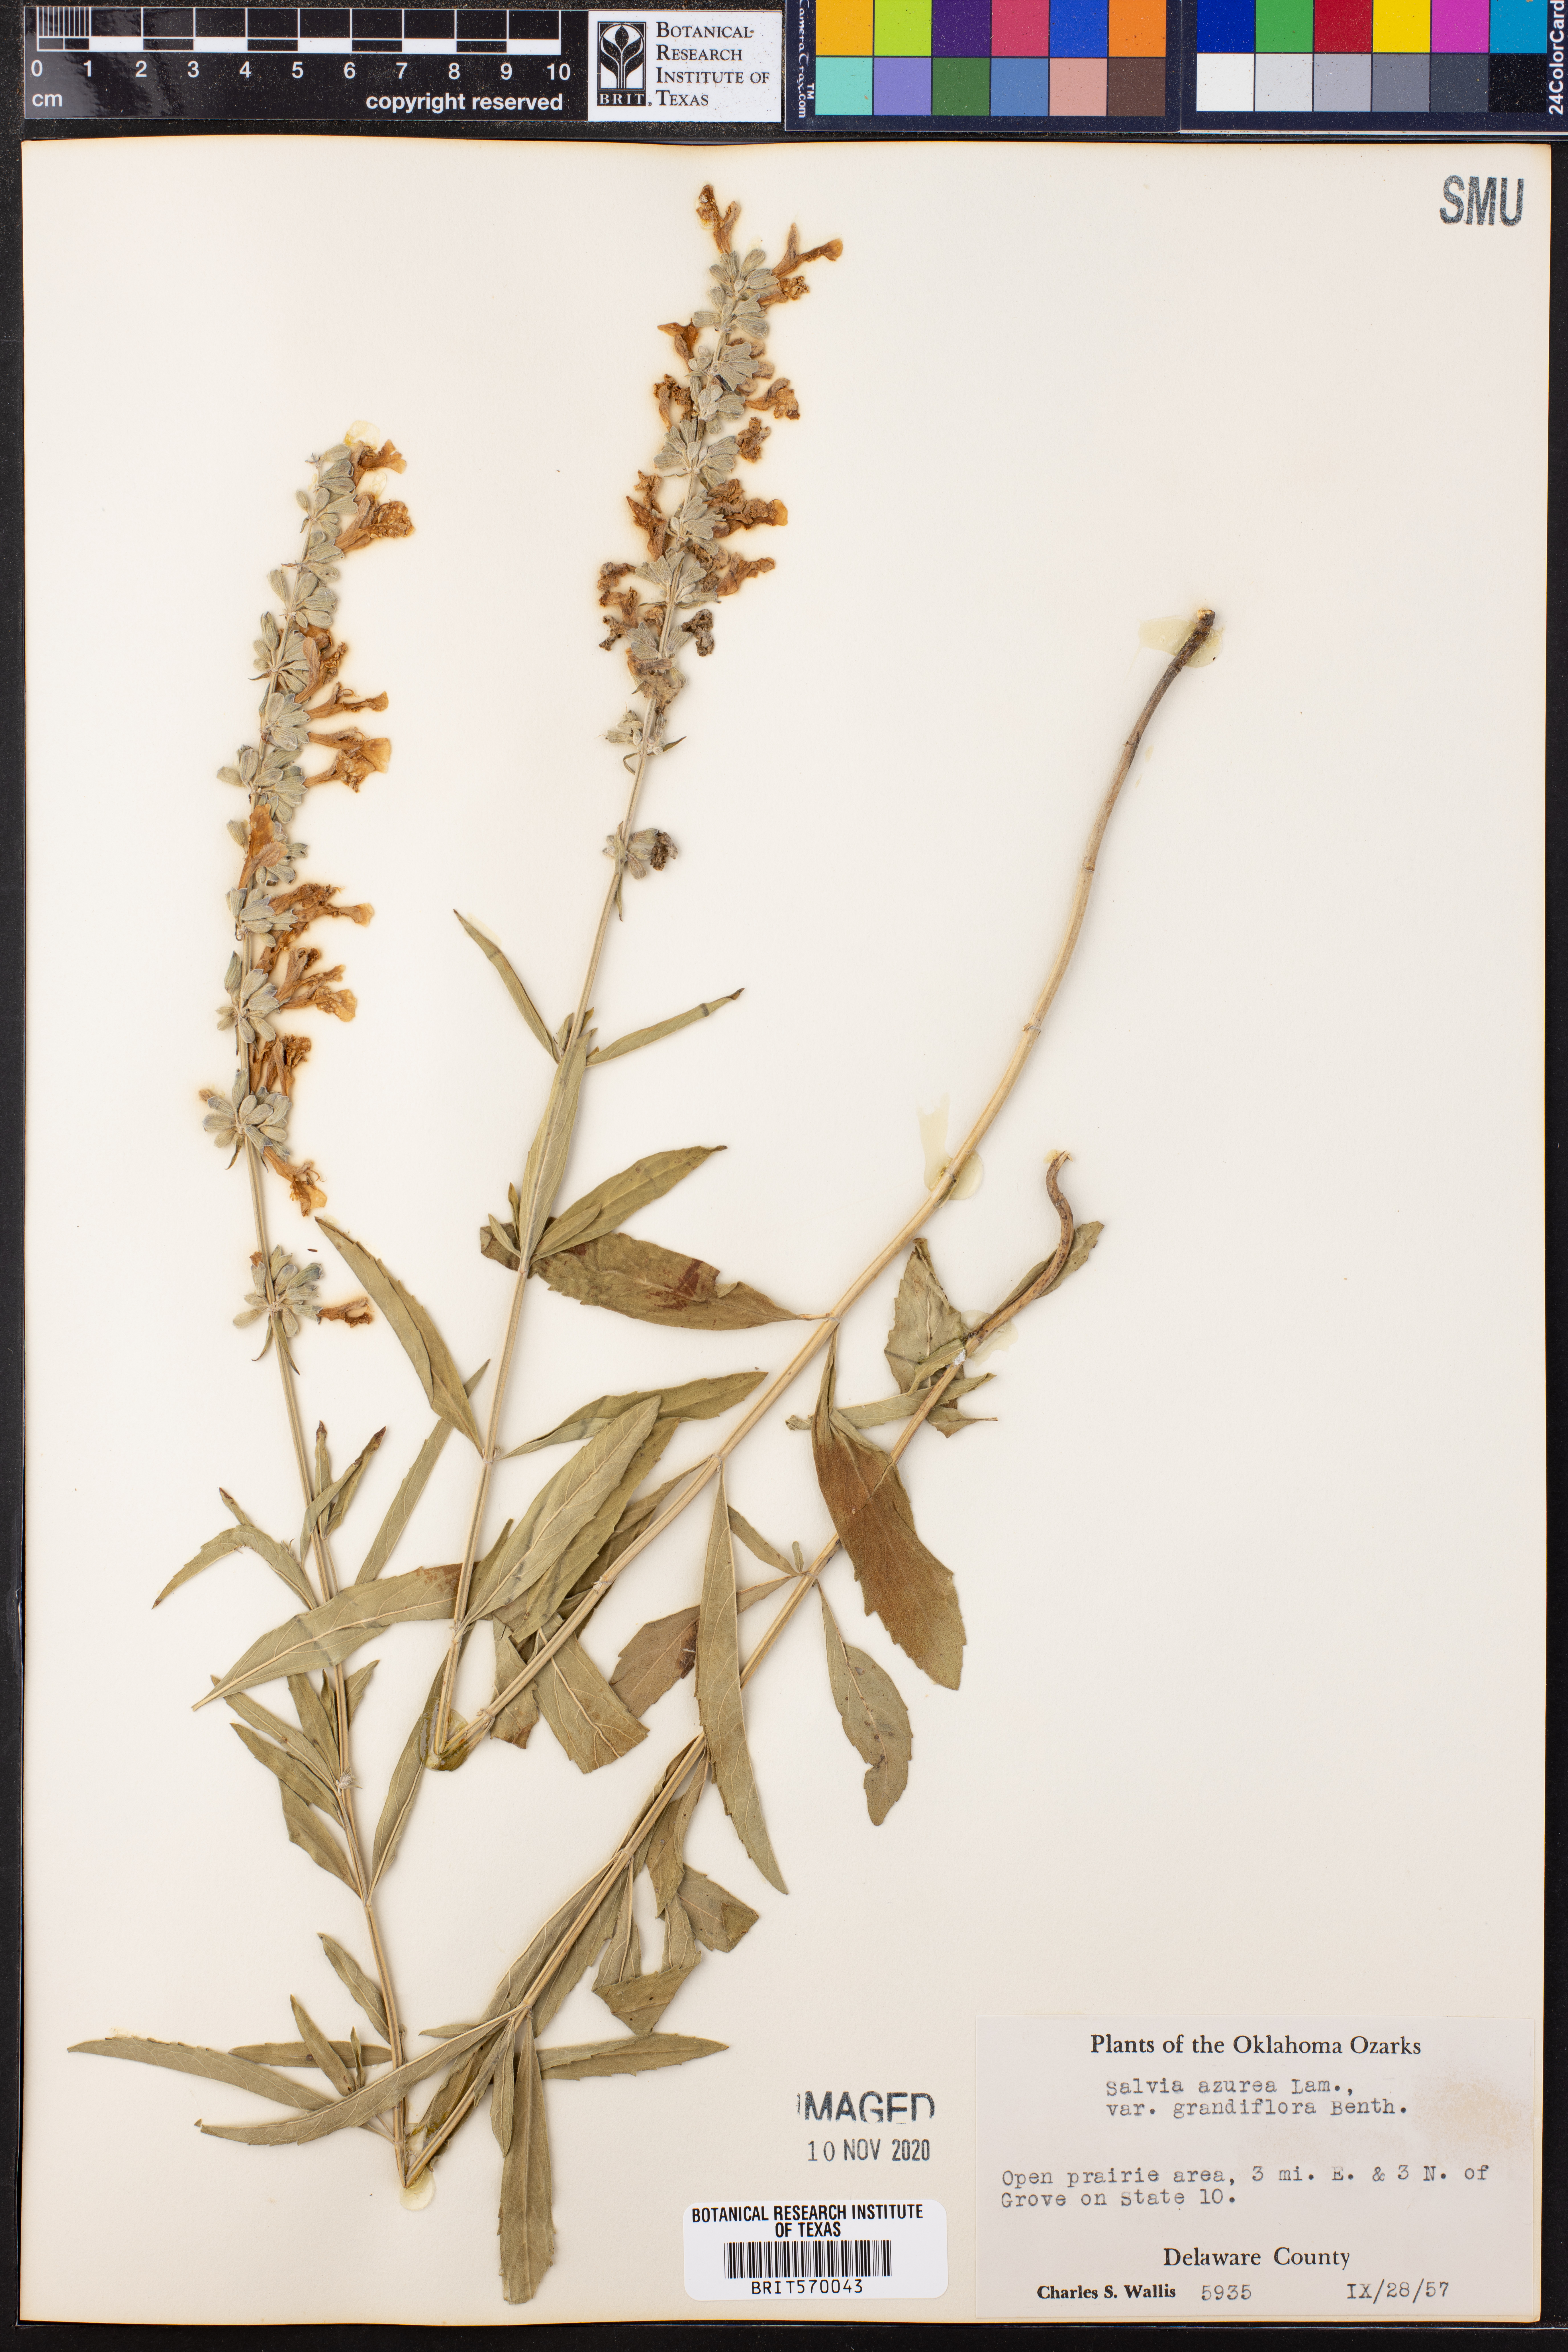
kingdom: Plantae
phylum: Tracheophyta
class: Magnoliopsida
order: Lamiales
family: Lamiaceae
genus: Salvia
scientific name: Salvia azurea
